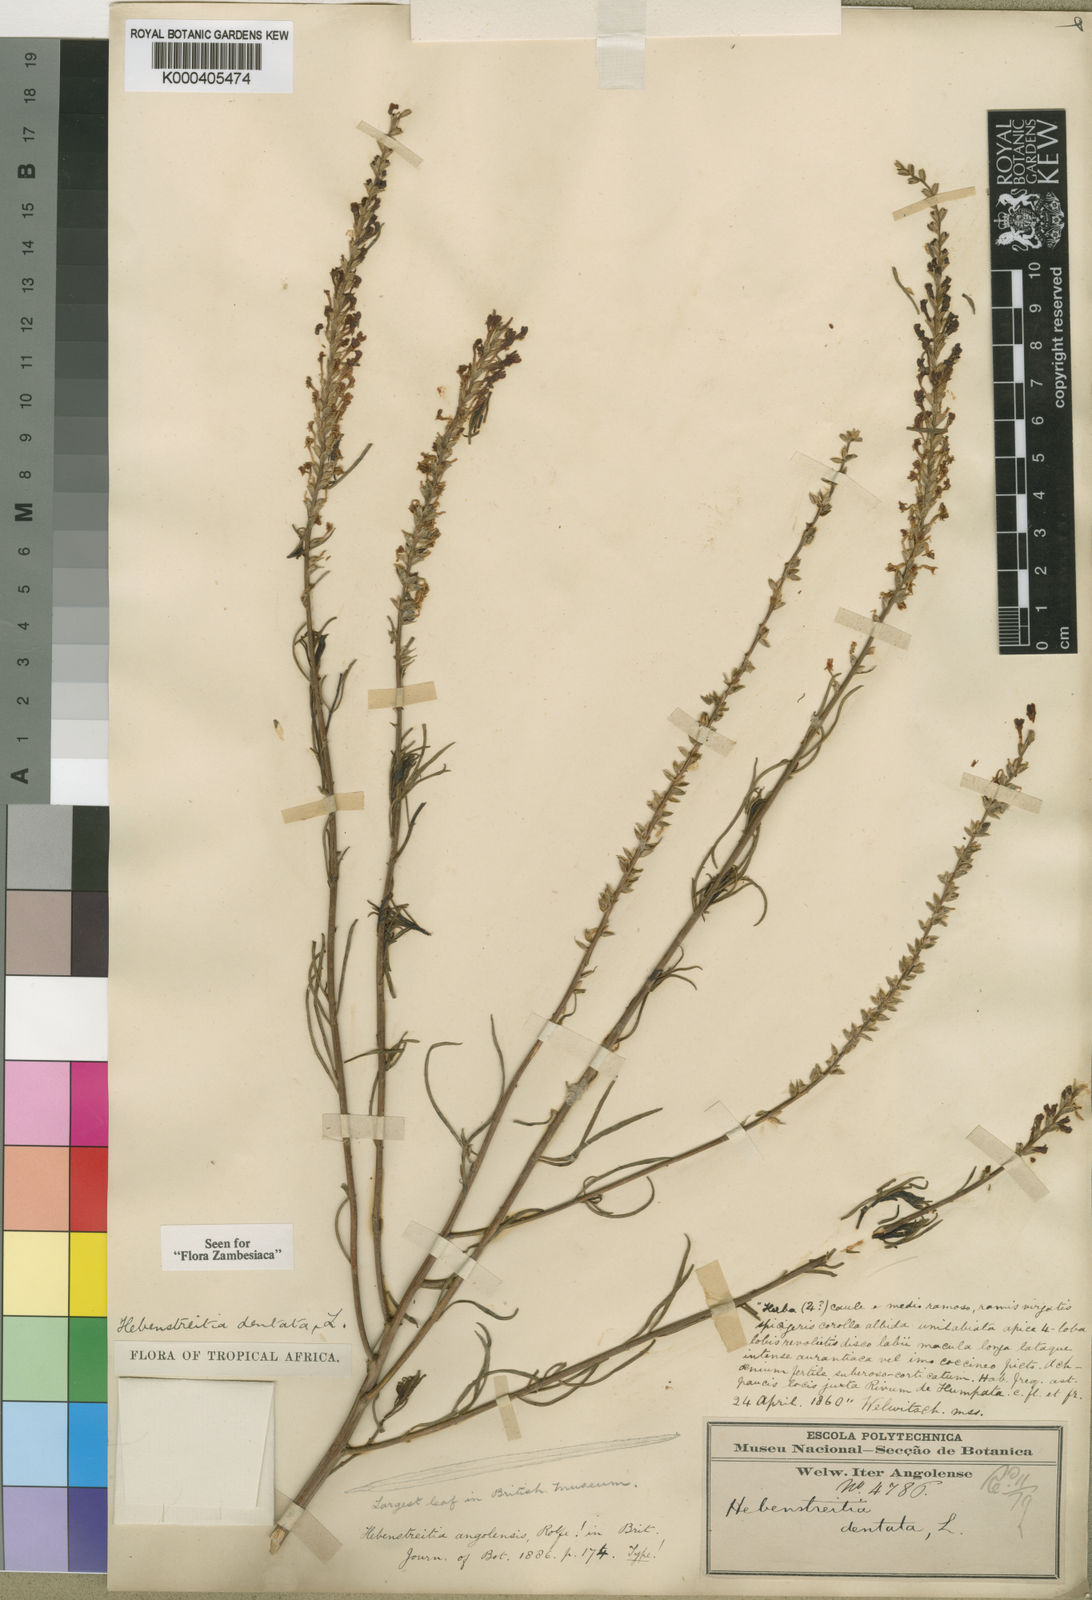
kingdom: Plantae
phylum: Tracheophyta
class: Magnoliopsida
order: Lamiales
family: Scrophulariaceae
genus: Hebenstretia
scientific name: Hebenstretia angolensis
